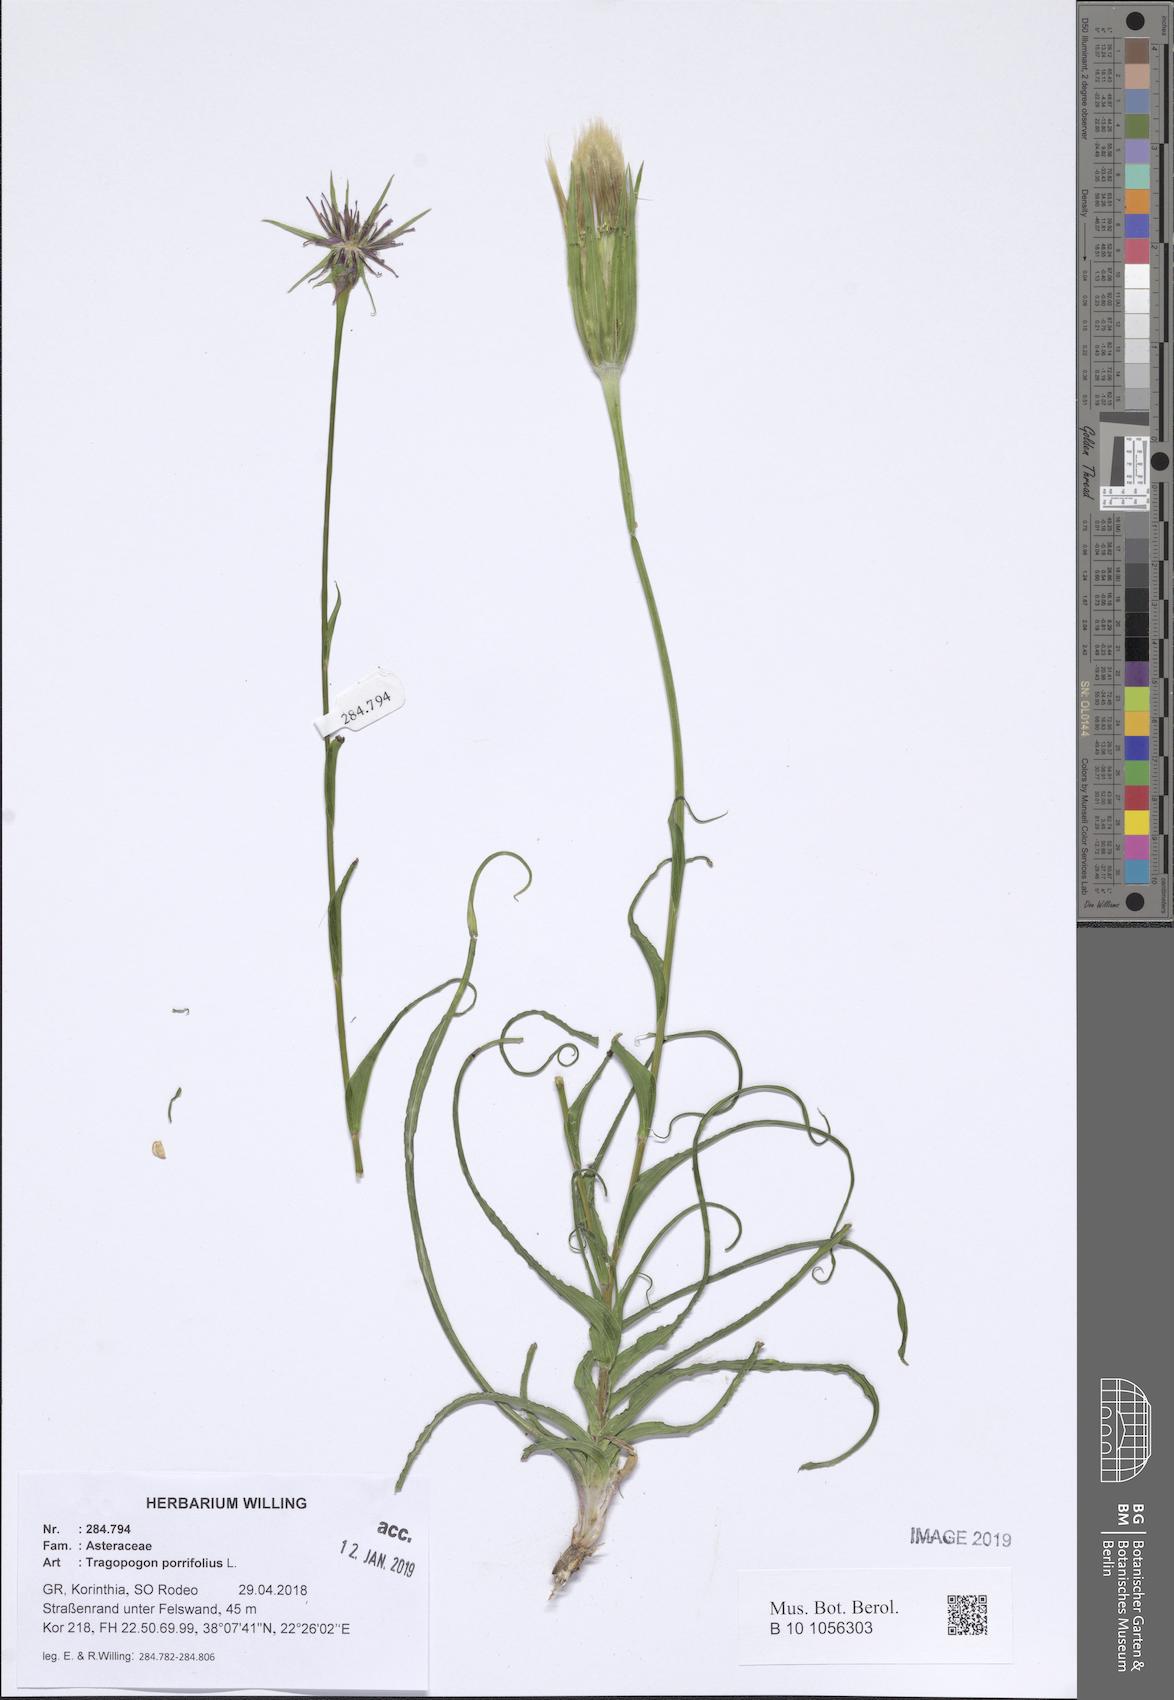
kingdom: Plantae
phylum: Tracheophyta
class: Magnoliopsida
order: Asterales
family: Asteraceae
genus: Tragopogon
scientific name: Tragopogon porrifolius
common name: Salsify
